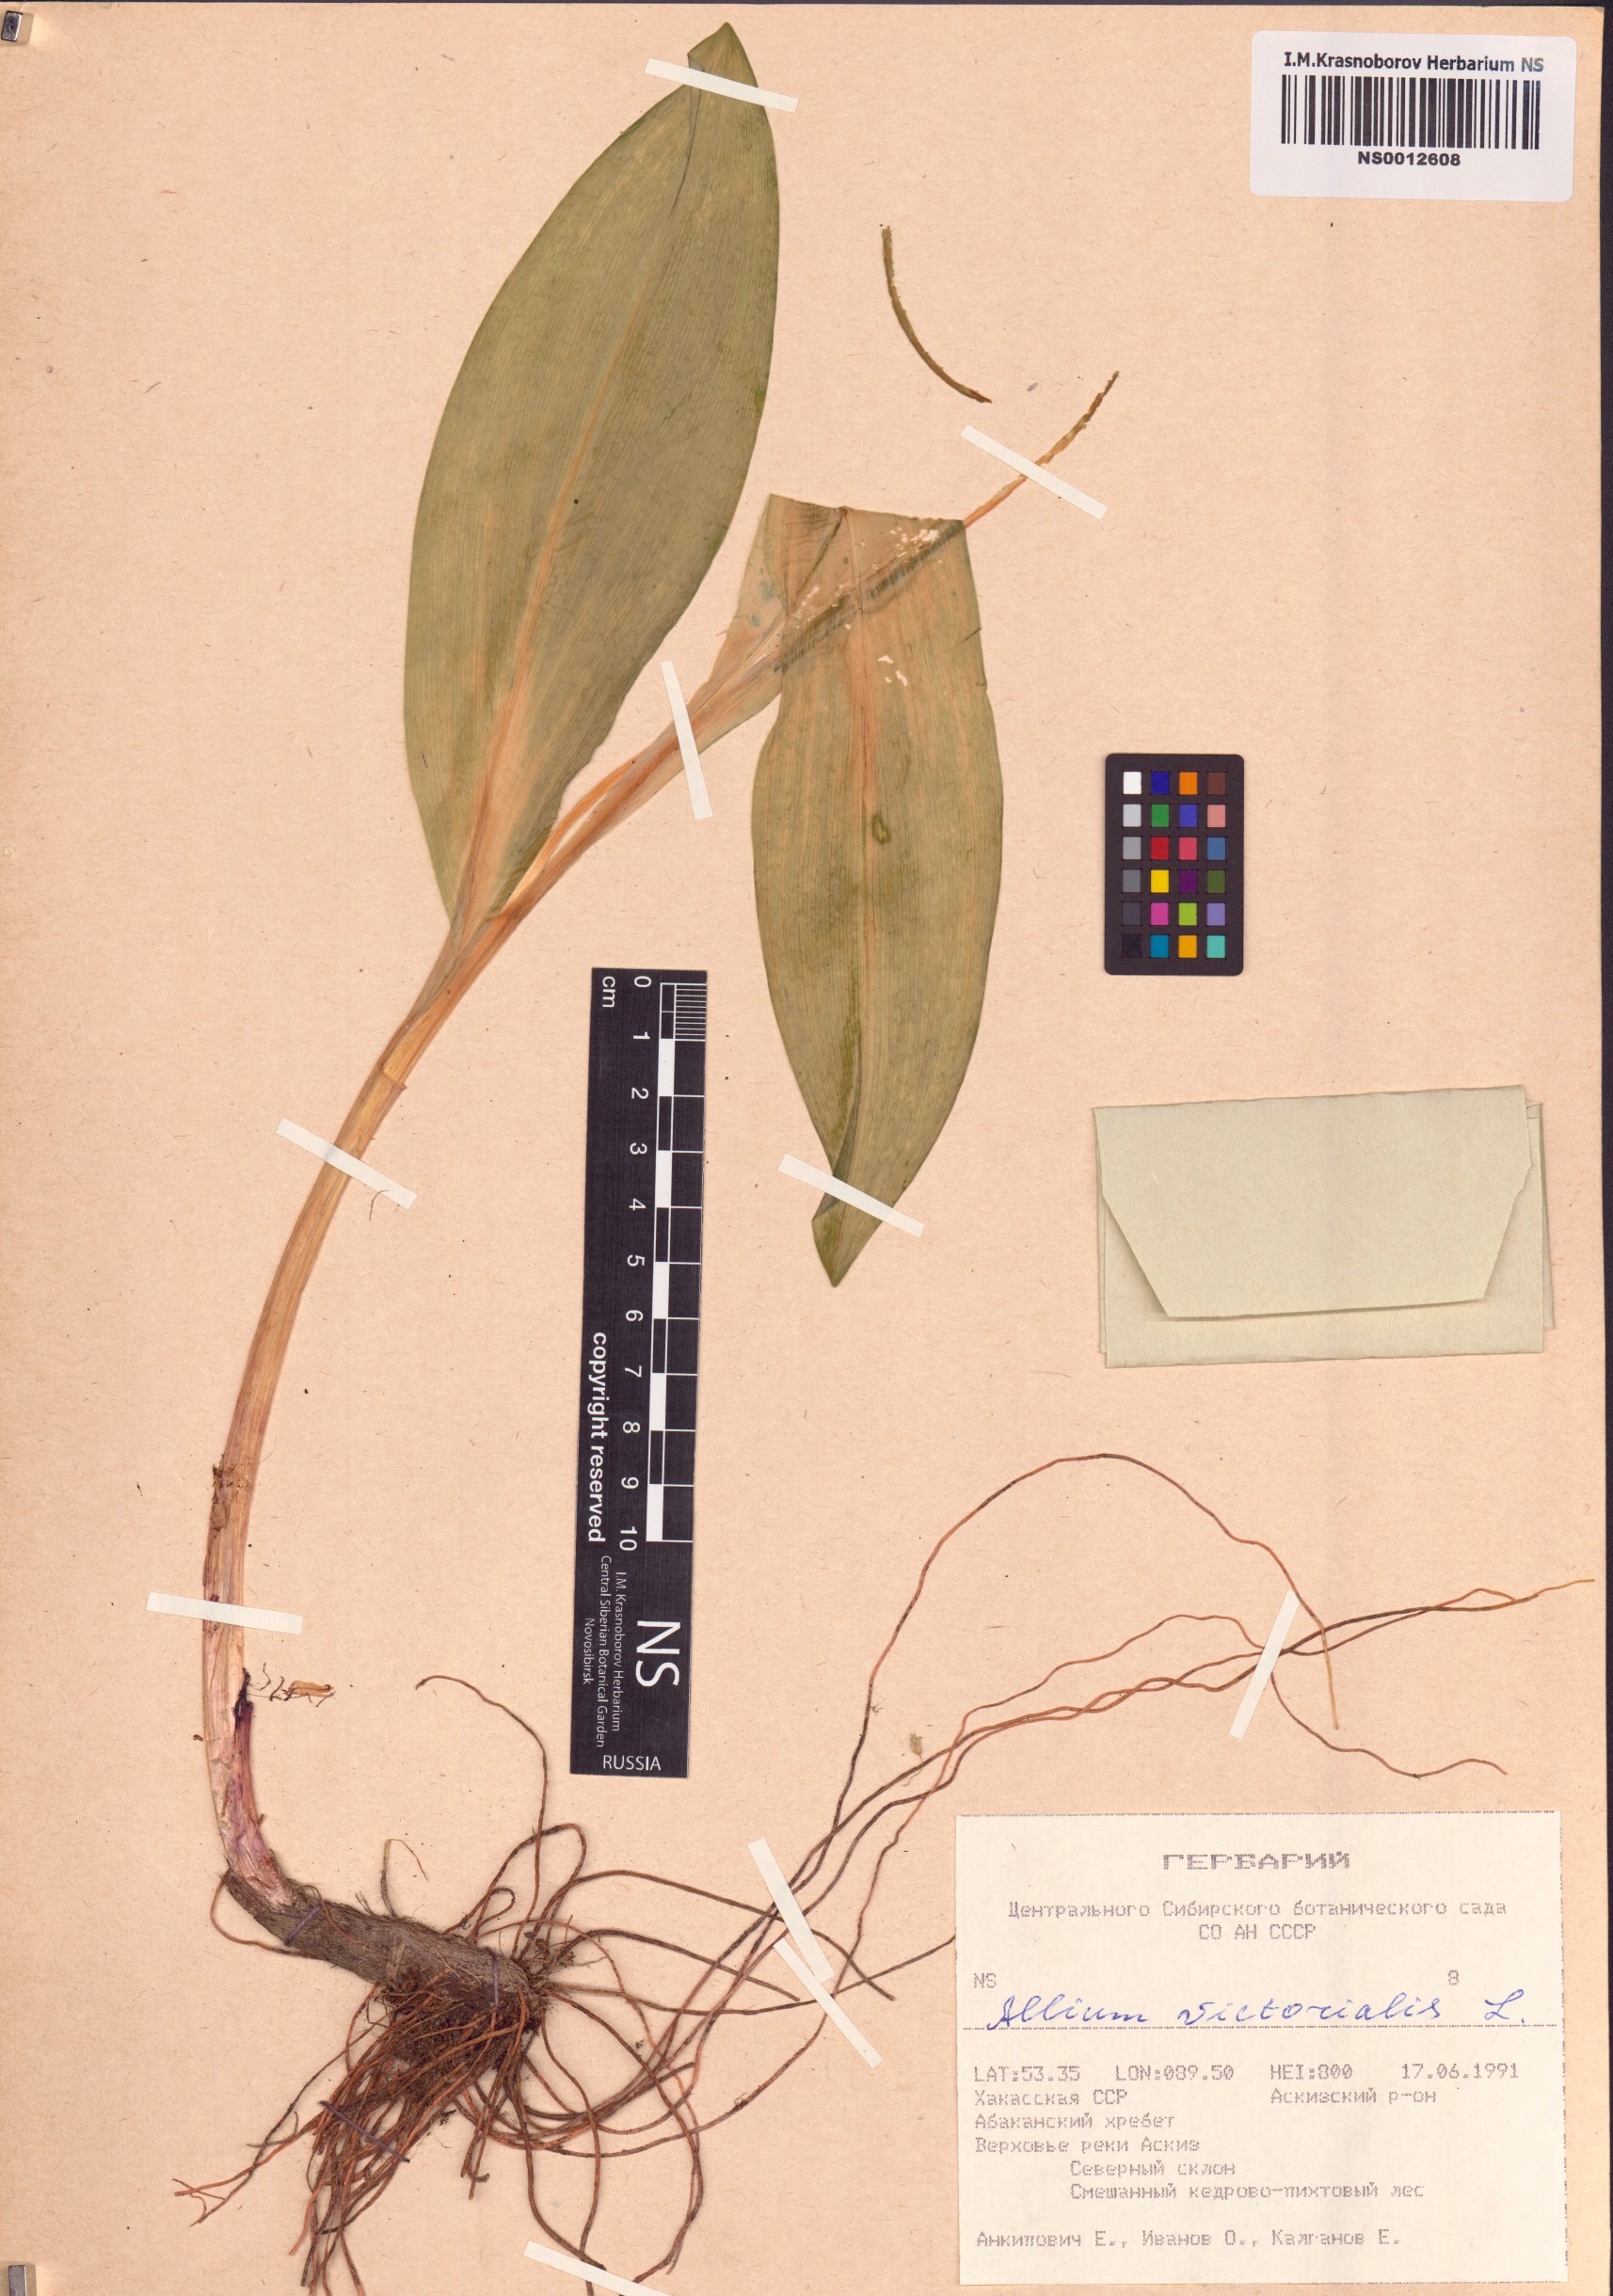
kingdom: Plantae
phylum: Tracheophyta
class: Liliopsida
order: Asparagales
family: Amaryllidaceae
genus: Allium
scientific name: Allium microdictyon
